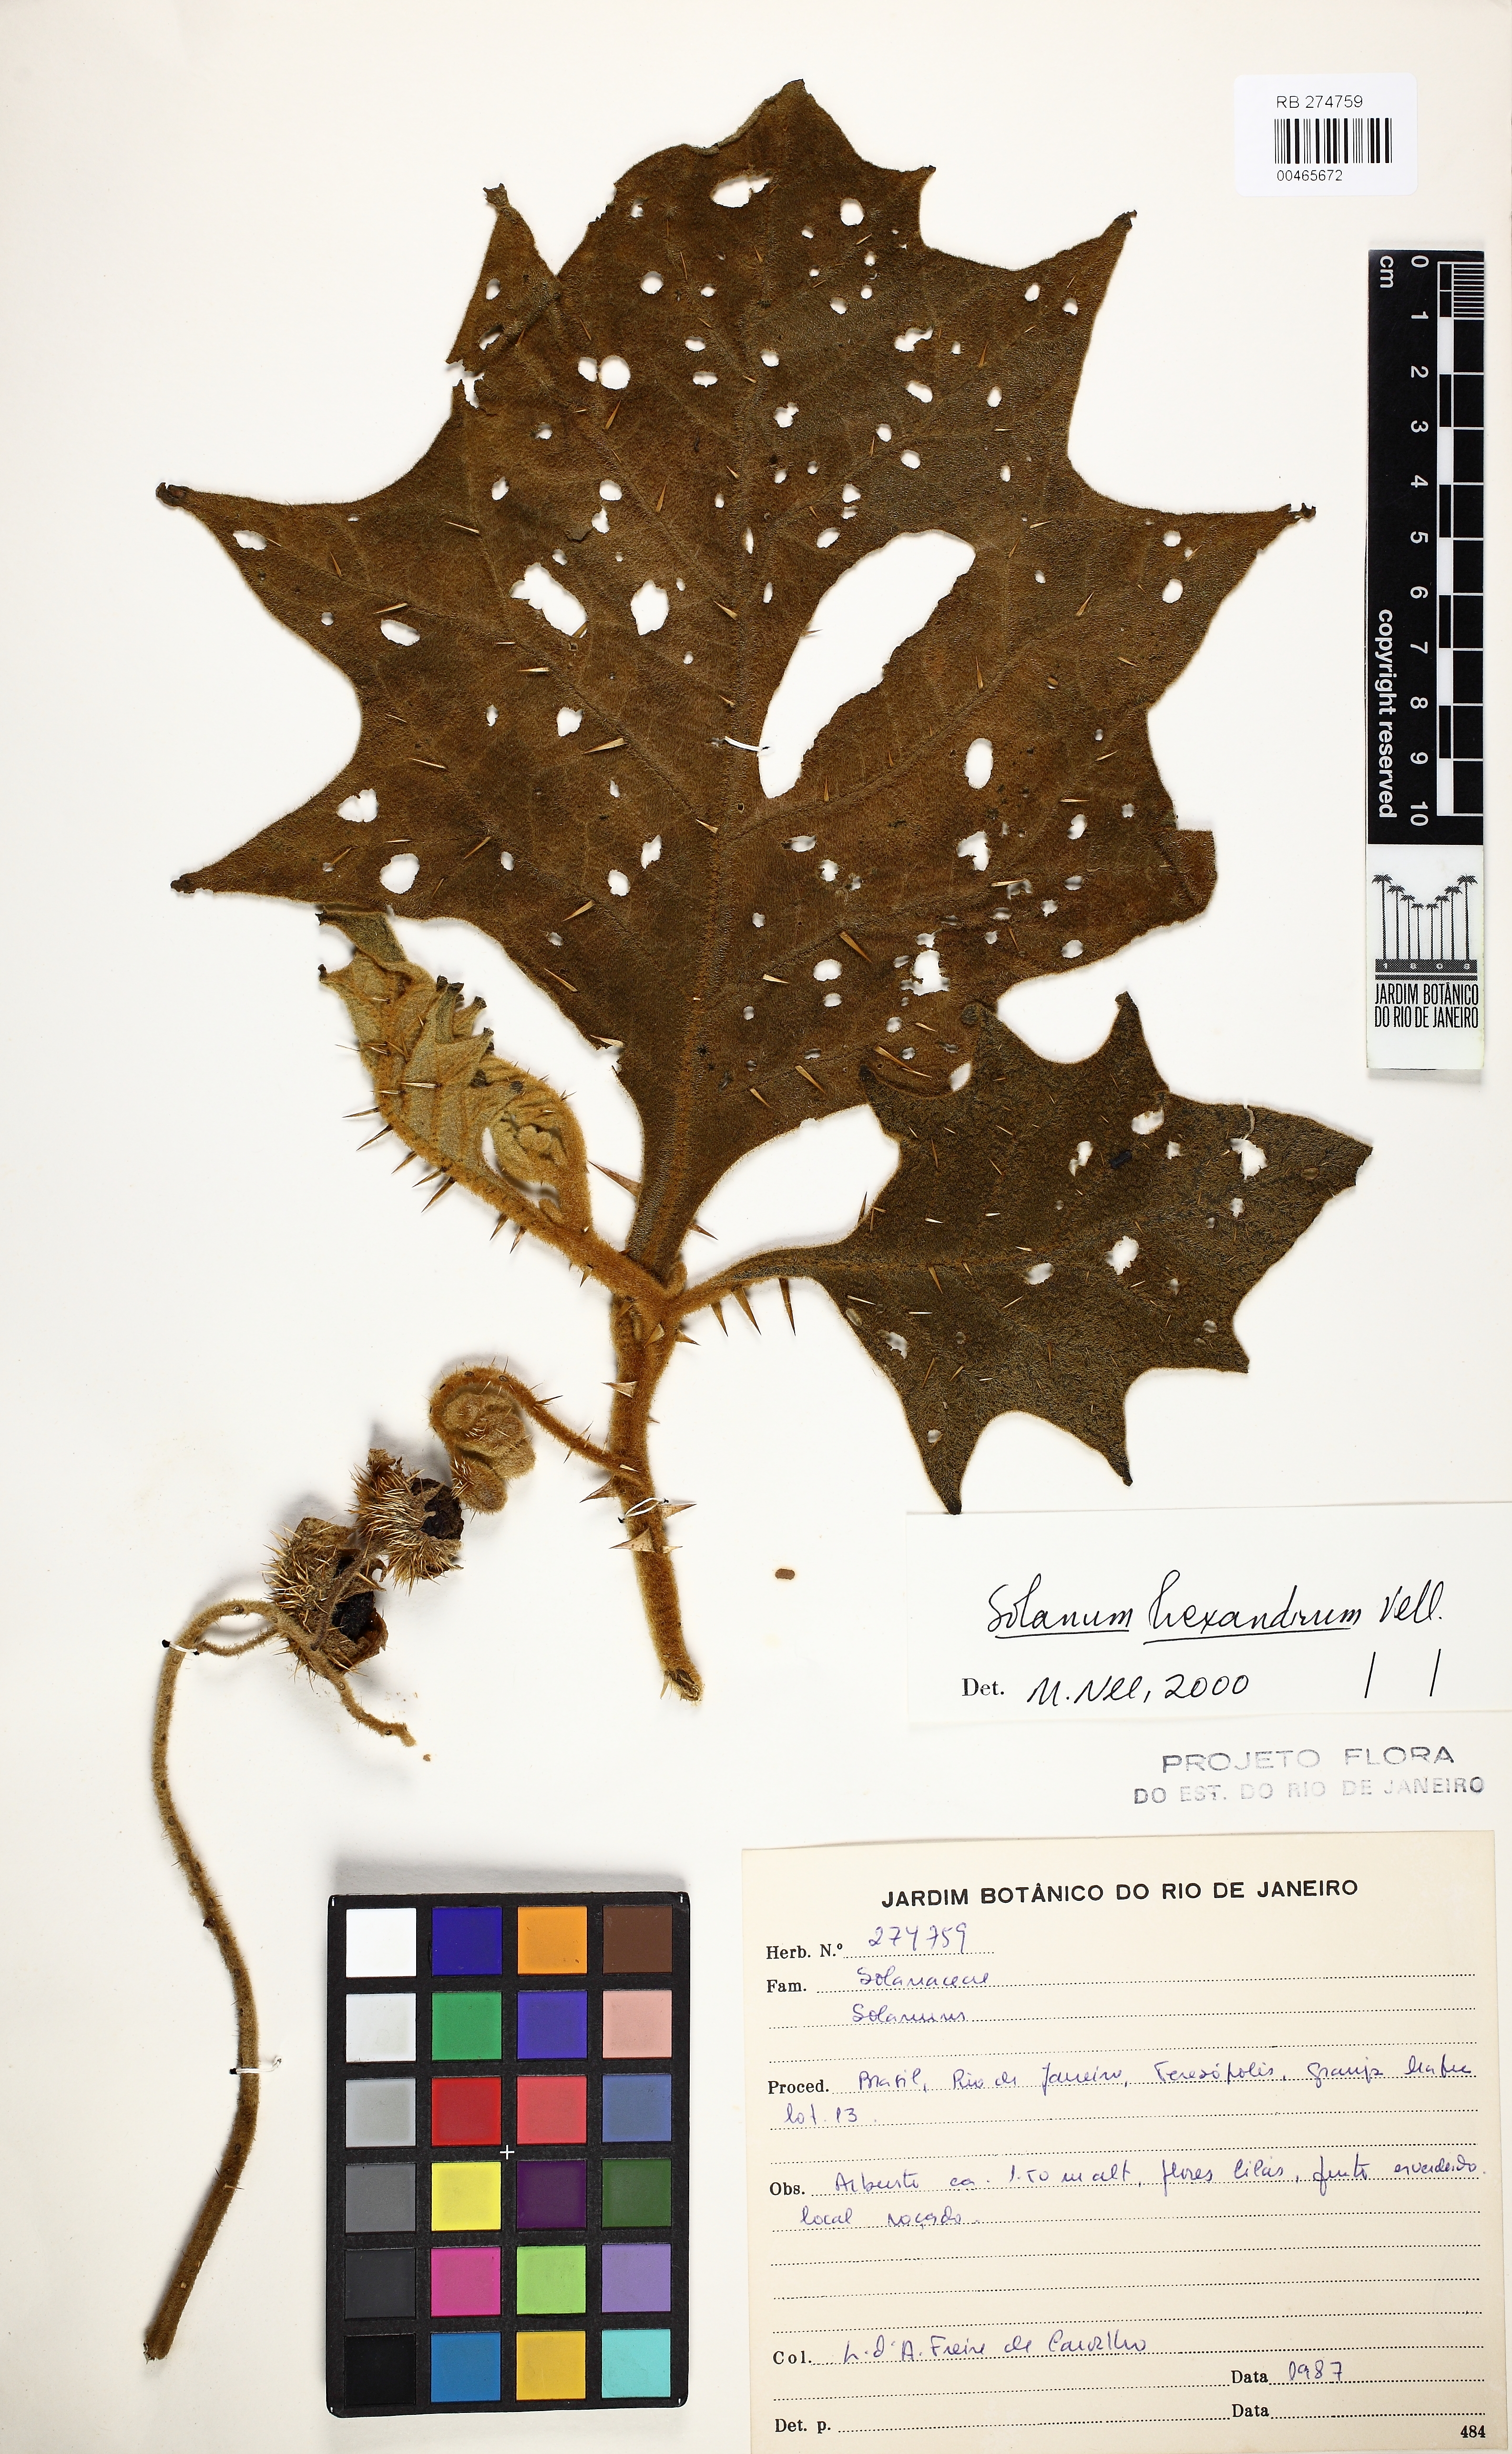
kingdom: Plantae
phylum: Tracheophyta
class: Magnoliopsida
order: Solanales
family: Solanaceae
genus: Solanum
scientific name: Solanum hexandrum
